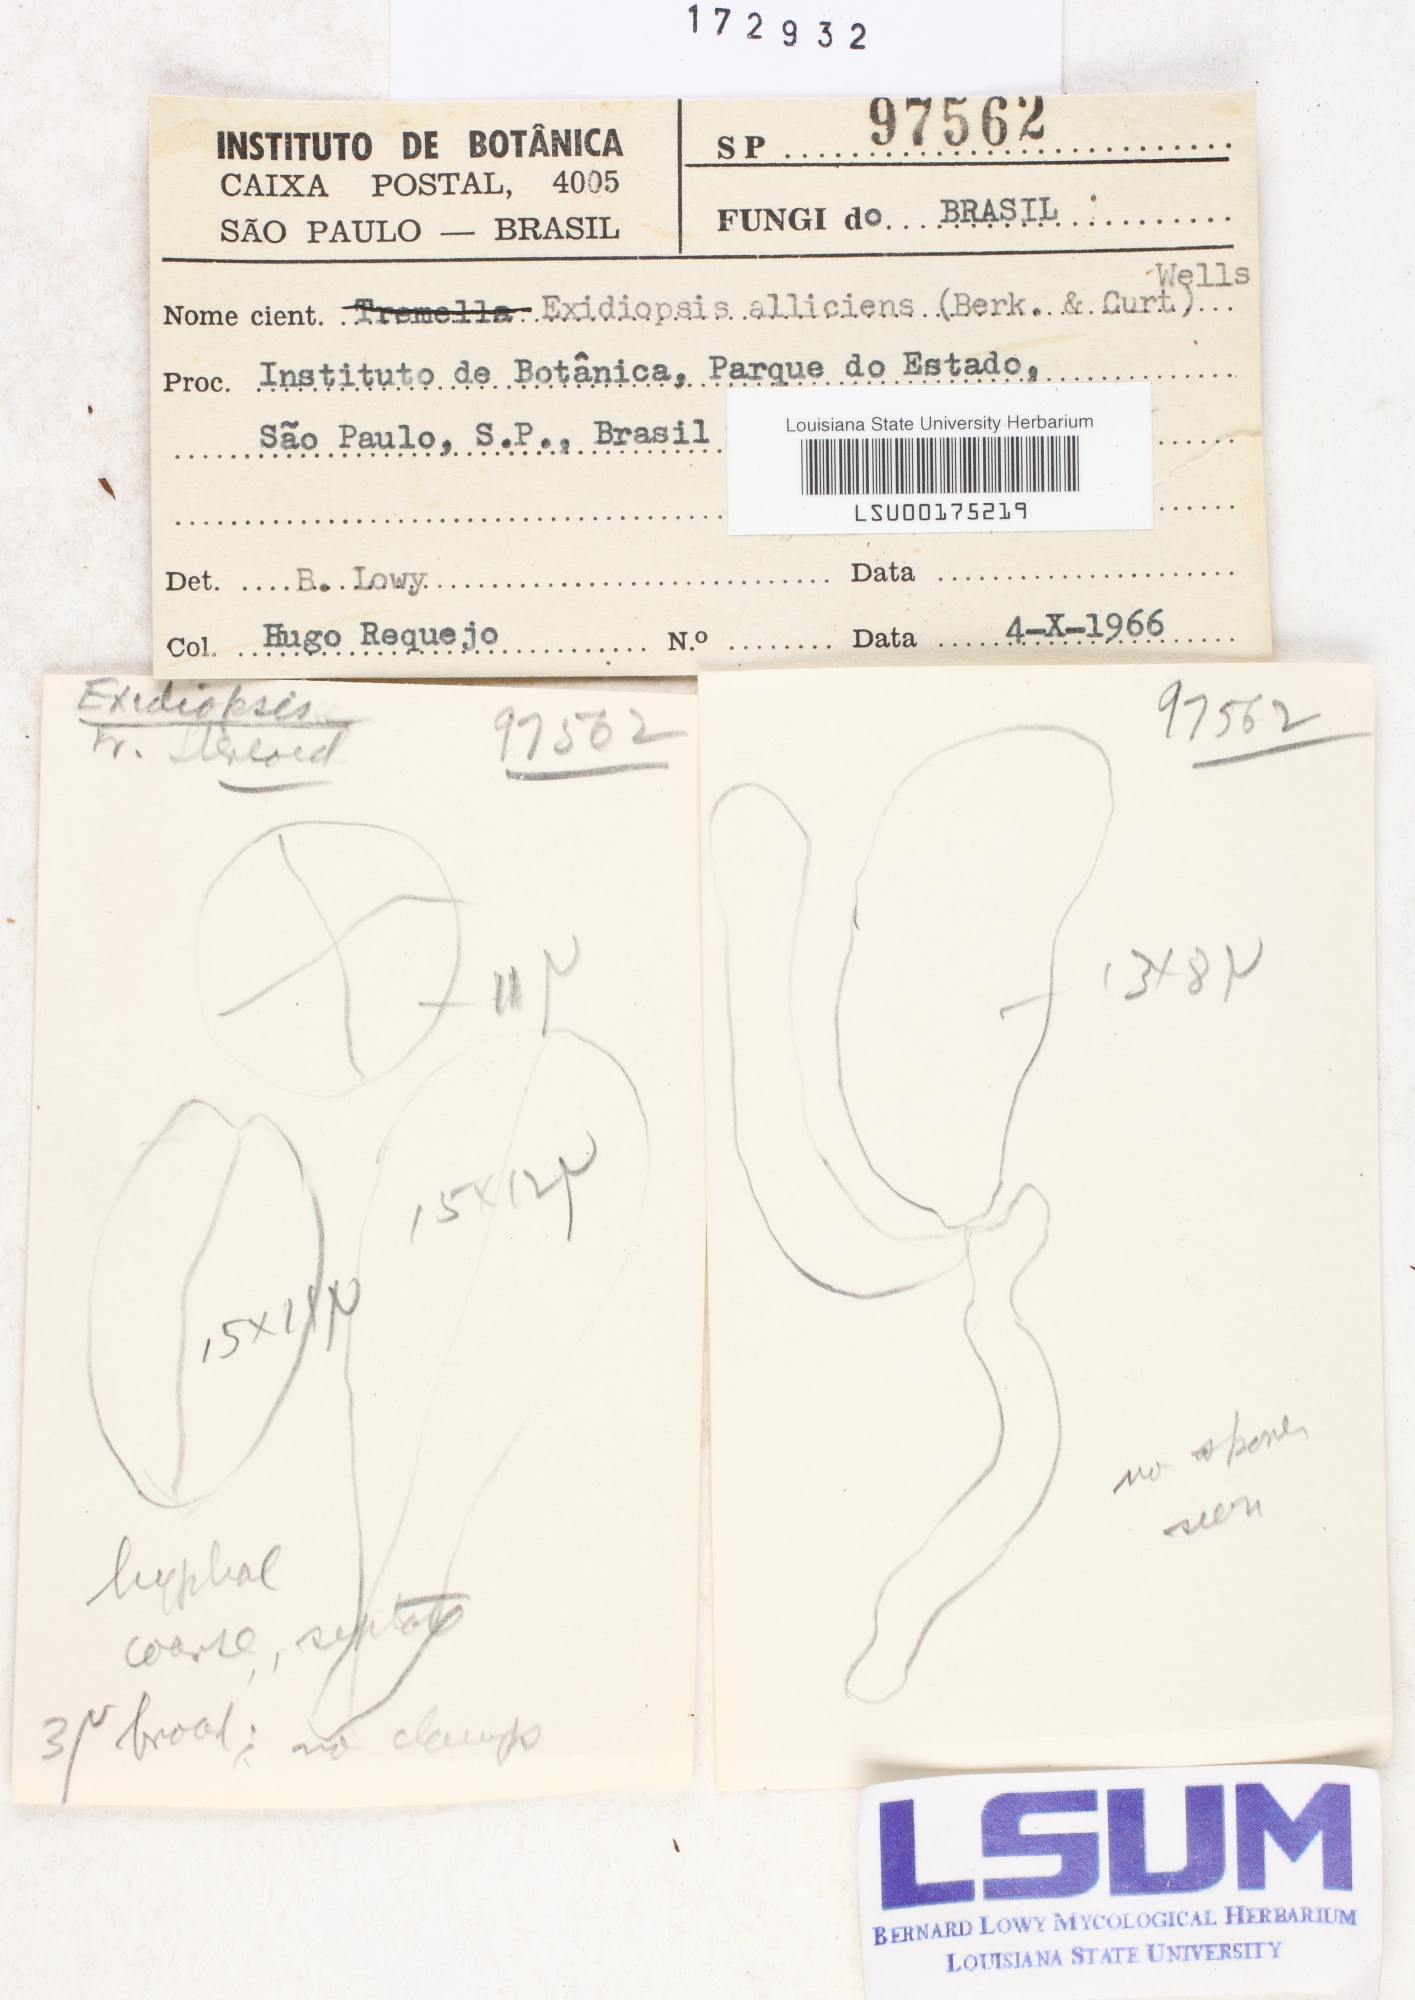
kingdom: Fungi
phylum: Basidiomycota
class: Agaricomycetes
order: Auriculariales
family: Auriculariaceae
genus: Exidiopsis
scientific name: Exidiopsis alliciens
